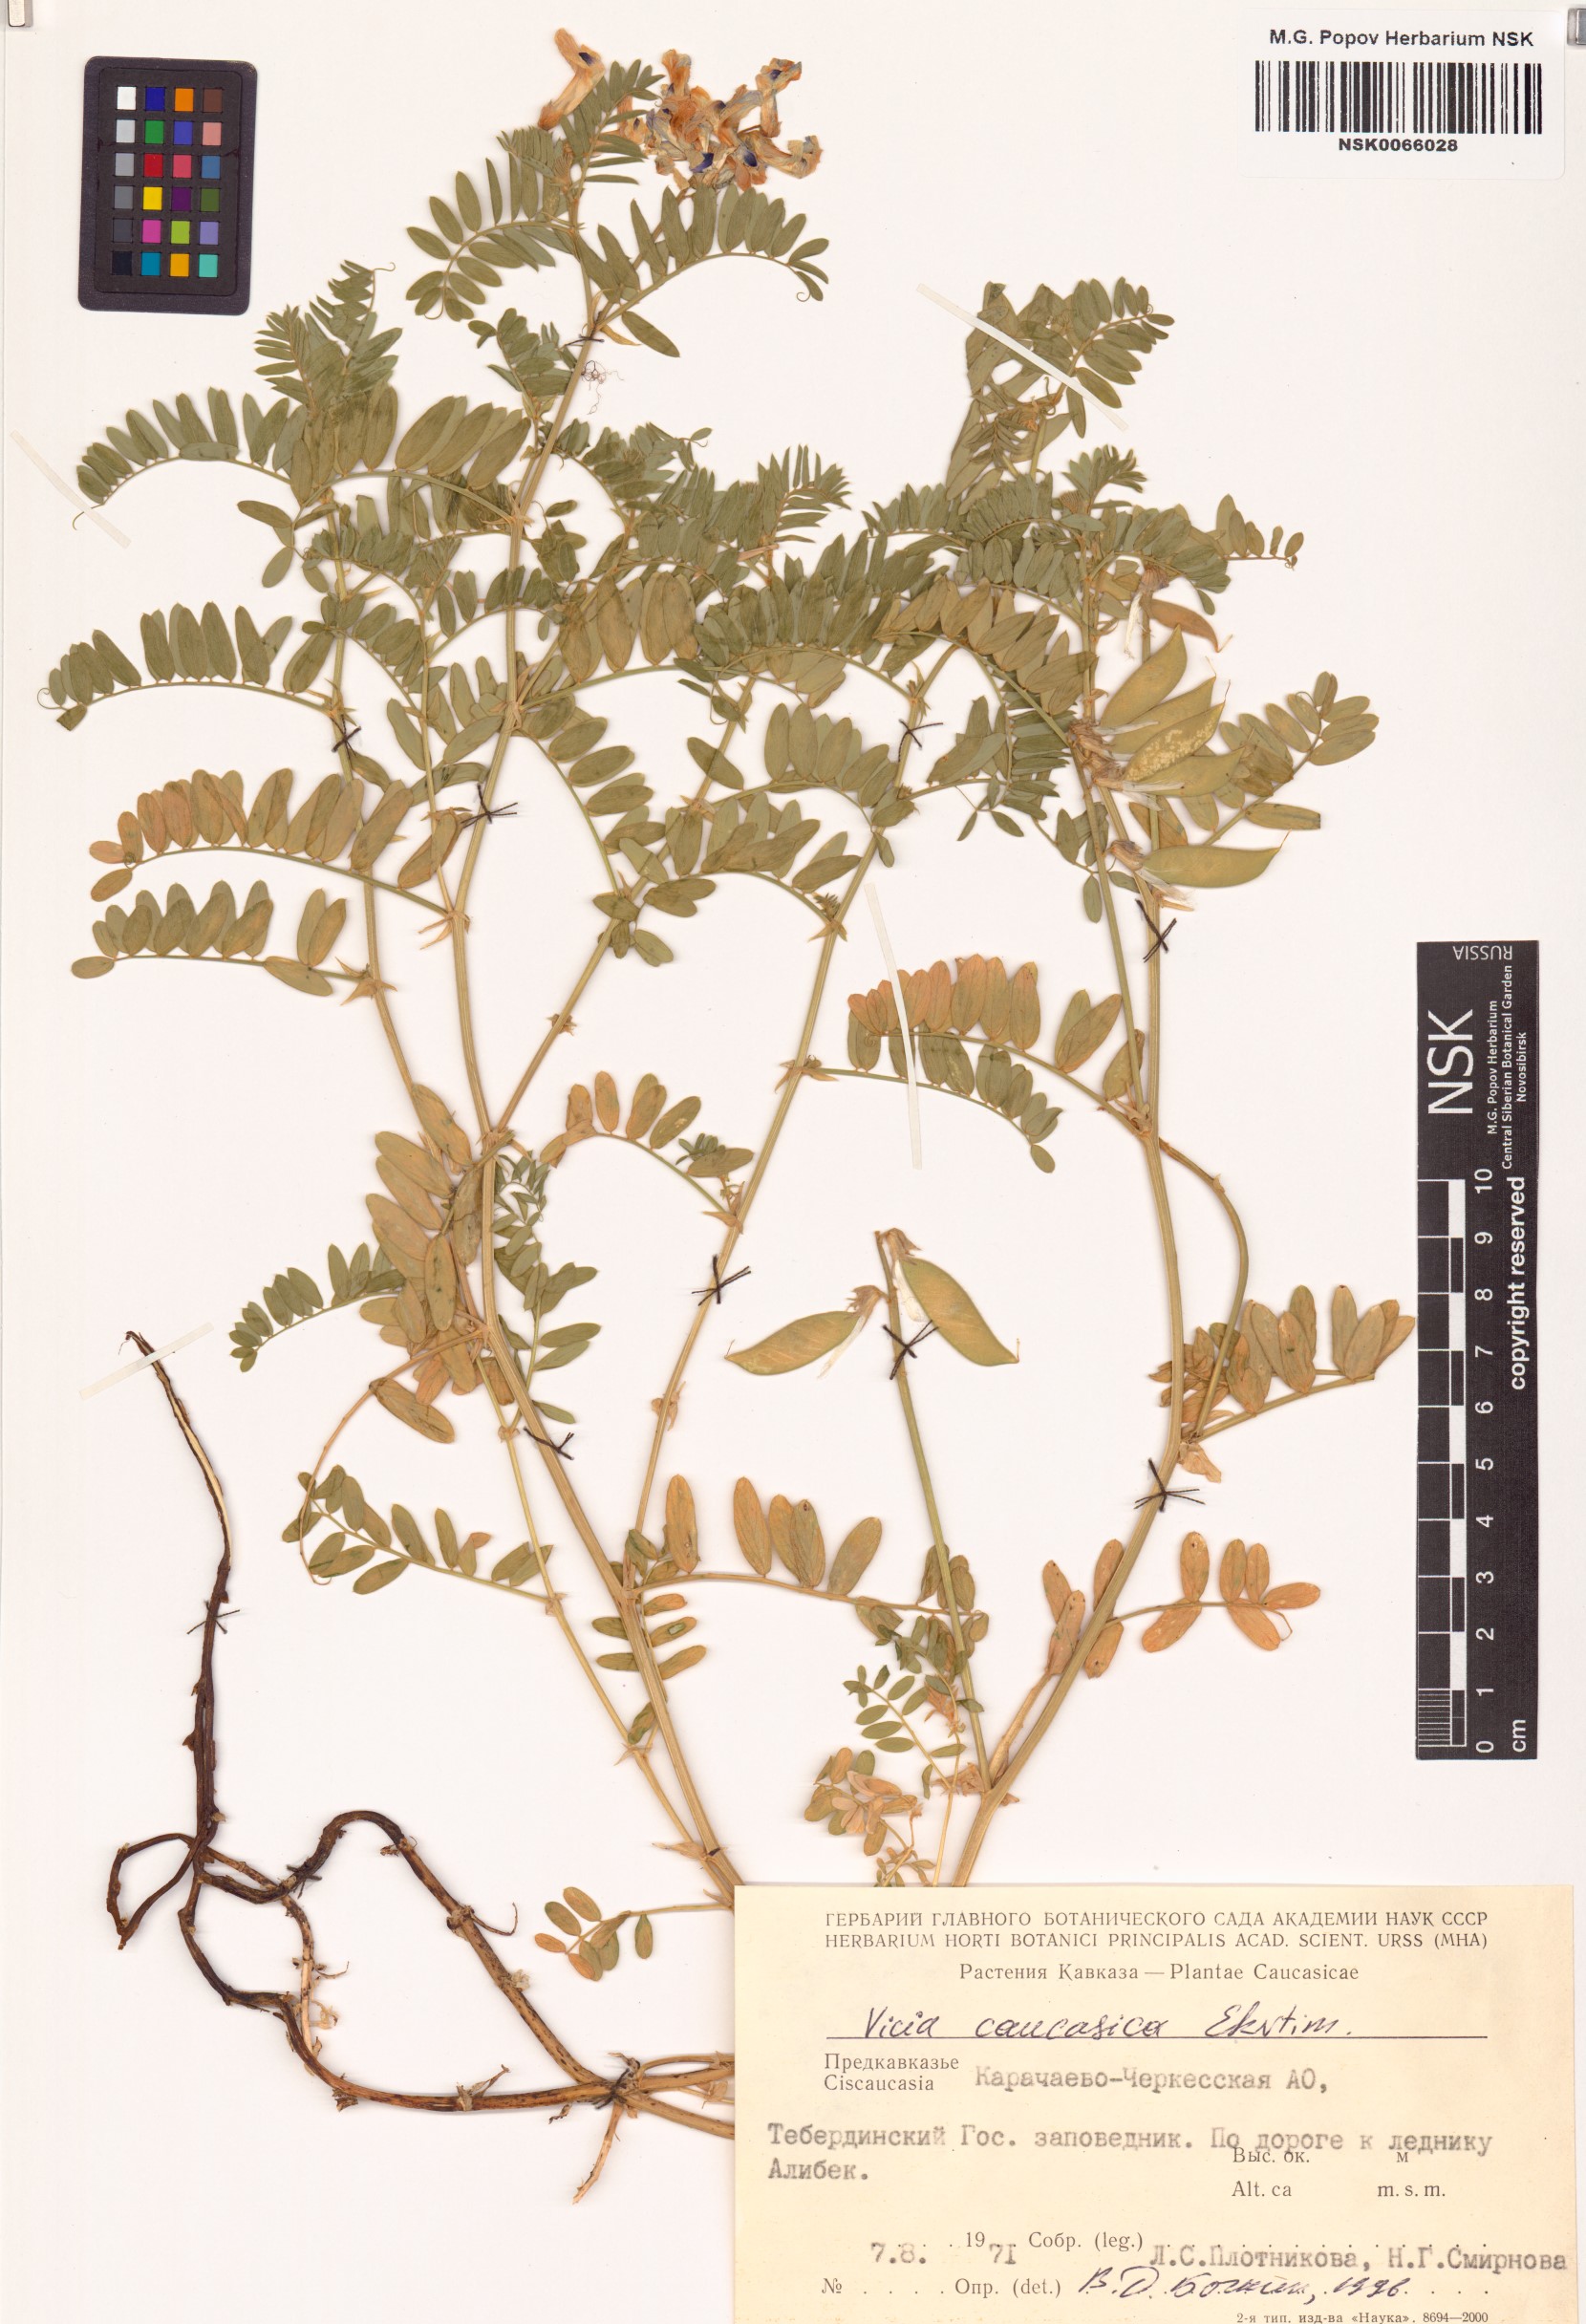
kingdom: Plantae
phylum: Tracheophyta
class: Magnoliopsida
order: Fabales
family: Fabaceae
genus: Vicia
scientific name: Vicia sosnowskyi
